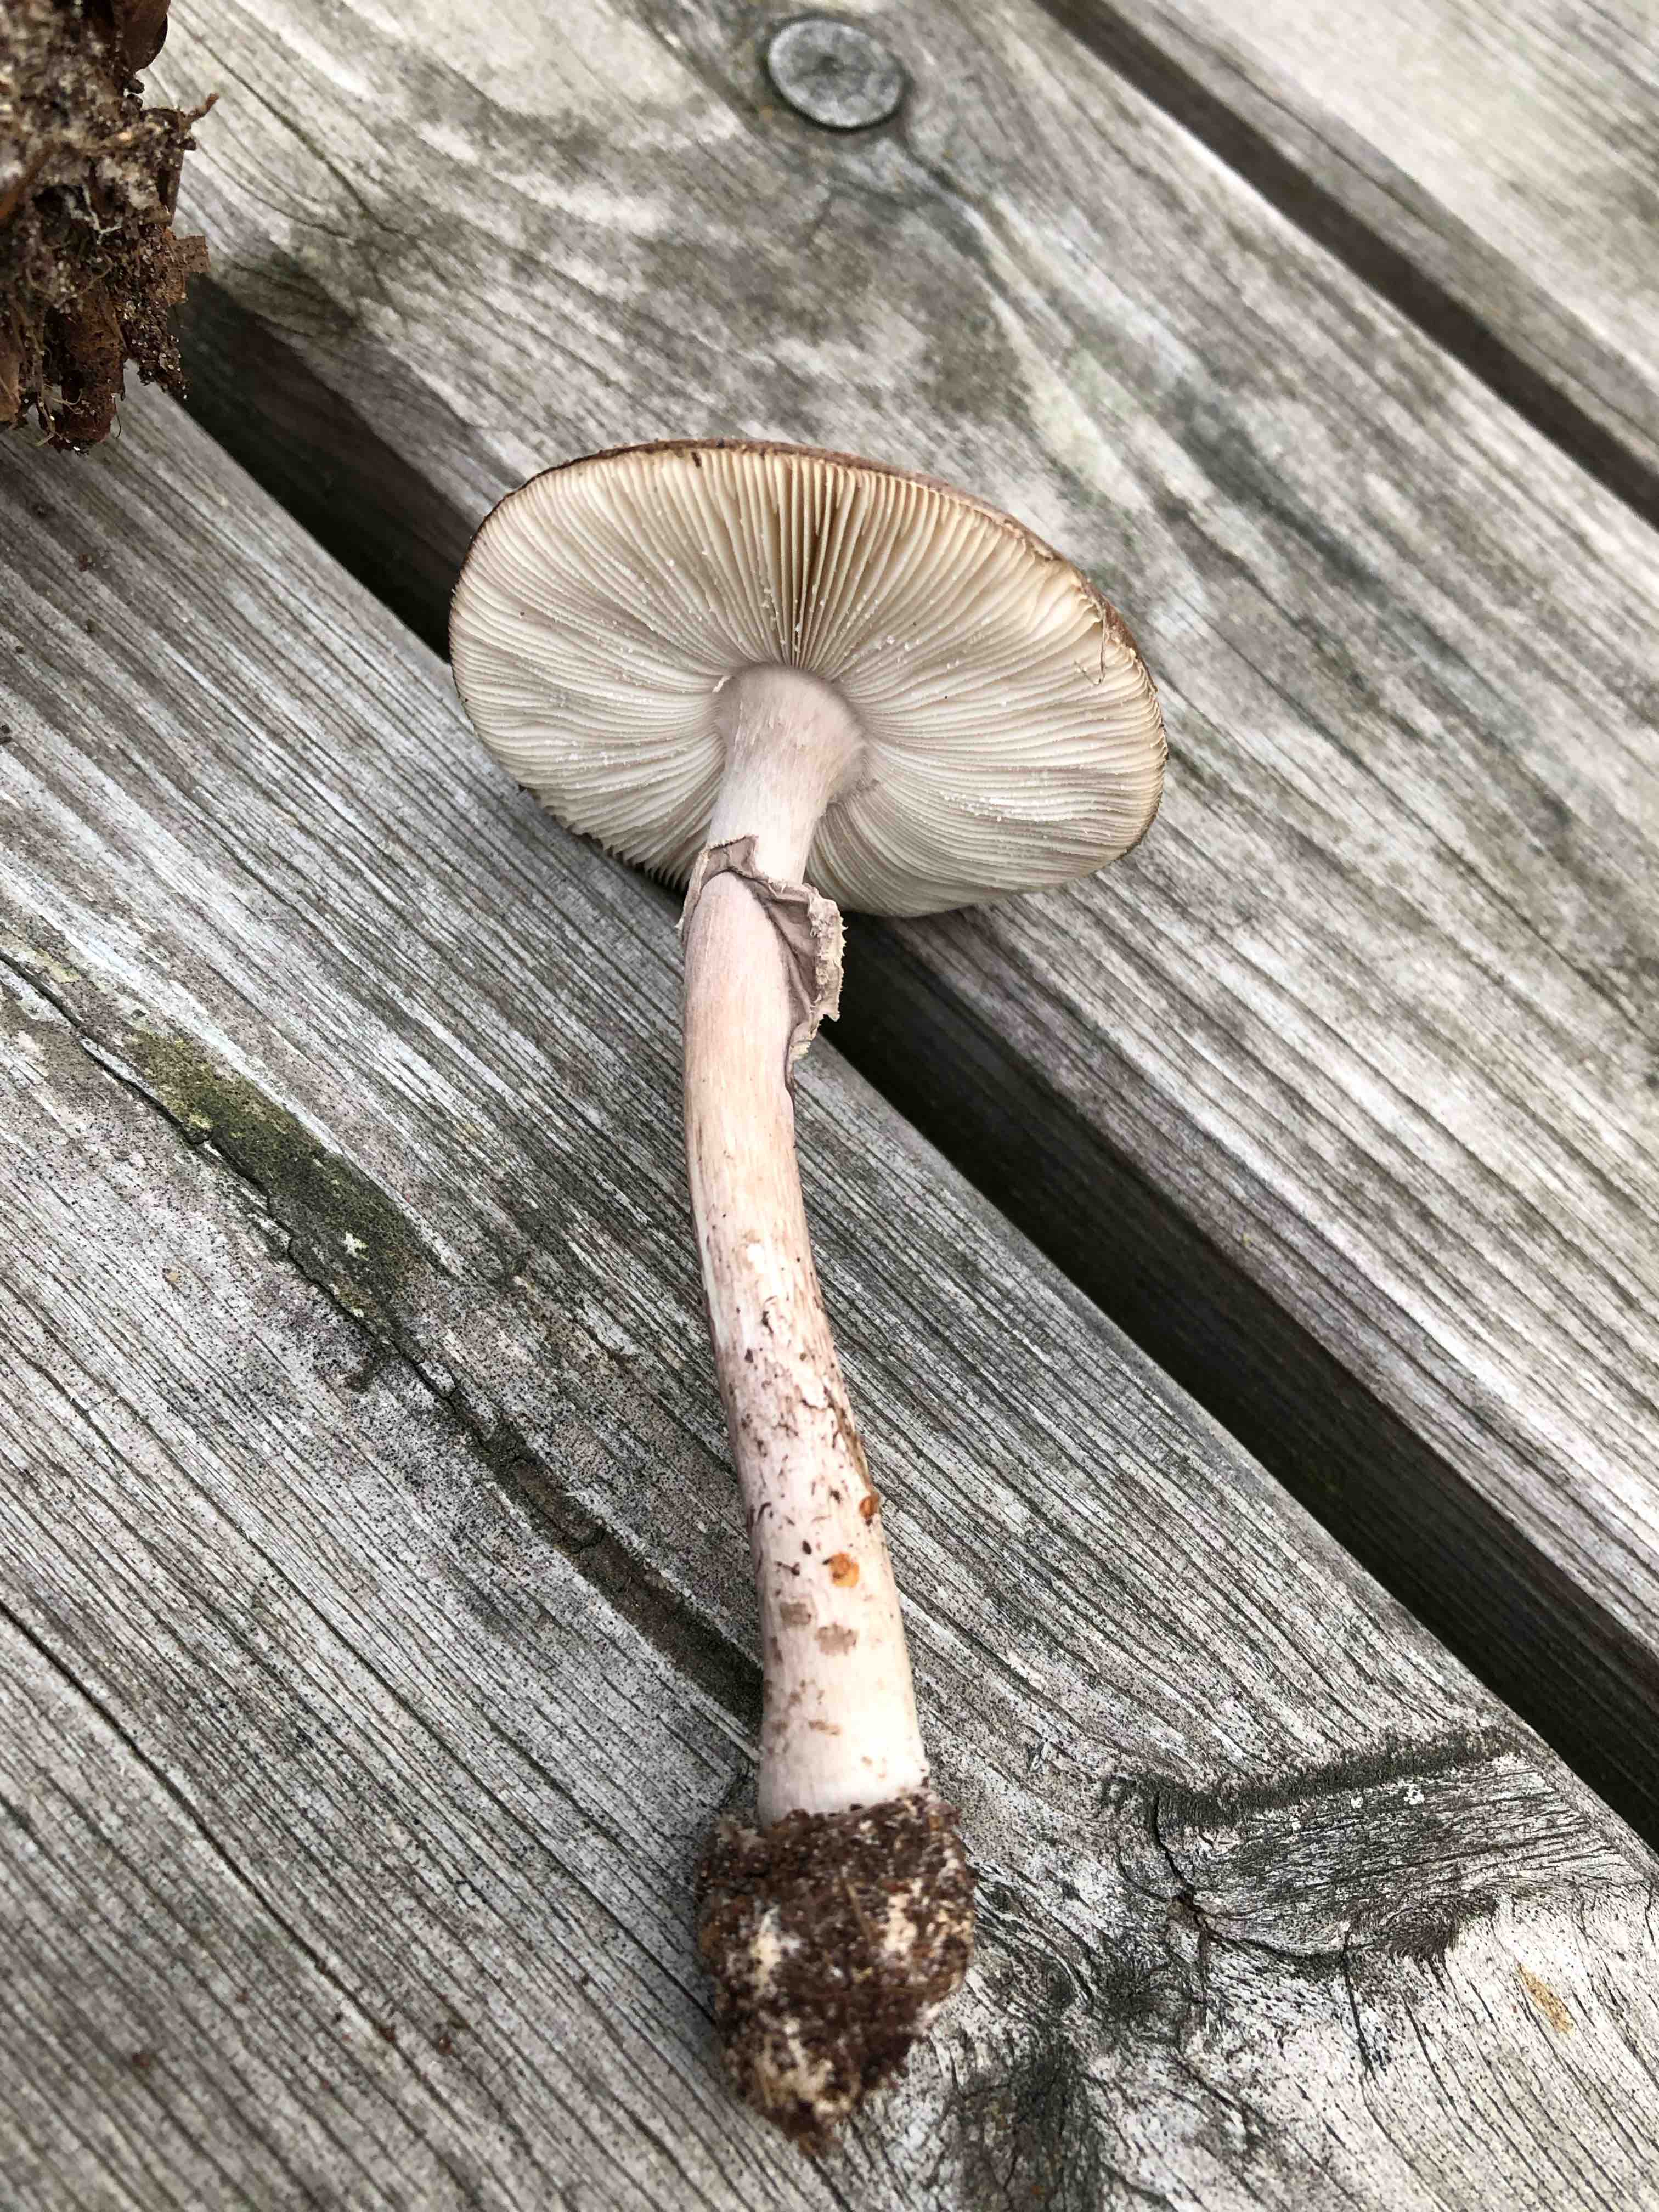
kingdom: Fungi
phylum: Basidiomycota
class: Agaricomycetes
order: Agaricales
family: Amanitaceae
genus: Amanita
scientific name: Amanita porphyria
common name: porfyr-fluesvamp
